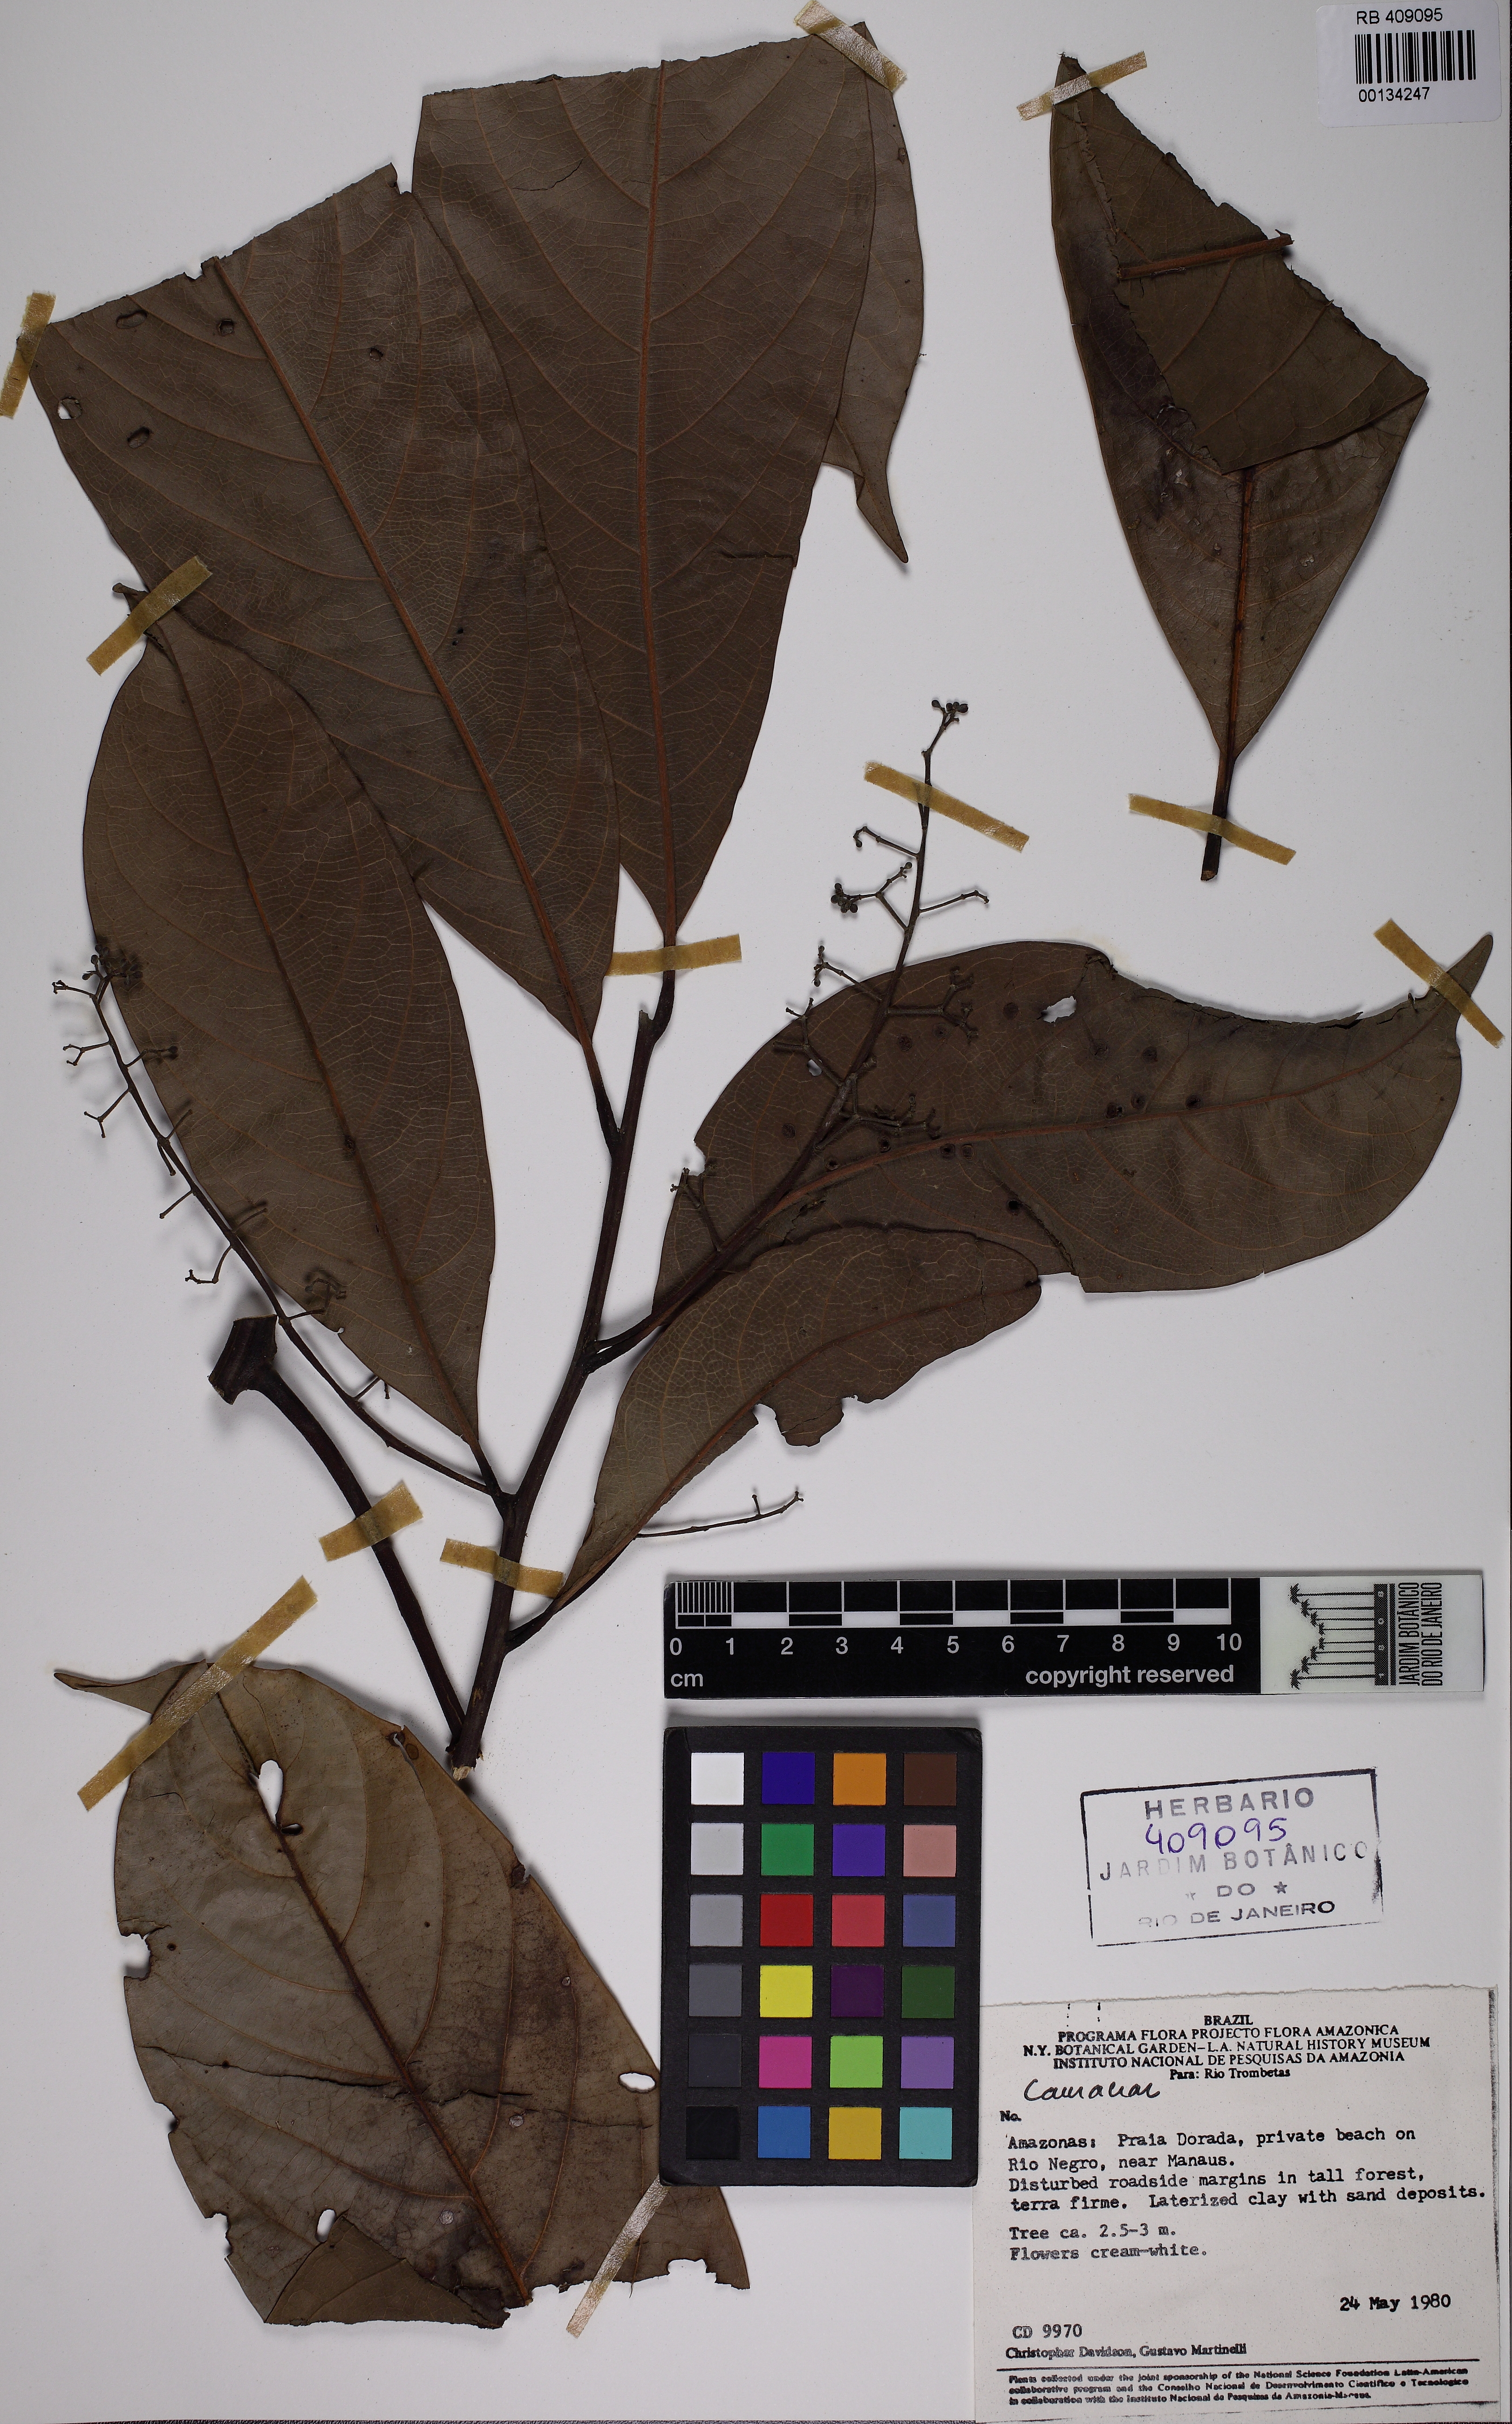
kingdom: Plantae
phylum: Tracheophyta
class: Magnoliopsida
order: Laurales
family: Lauraceae
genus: Mespilodaphne
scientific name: Mespilodaphne opifera
